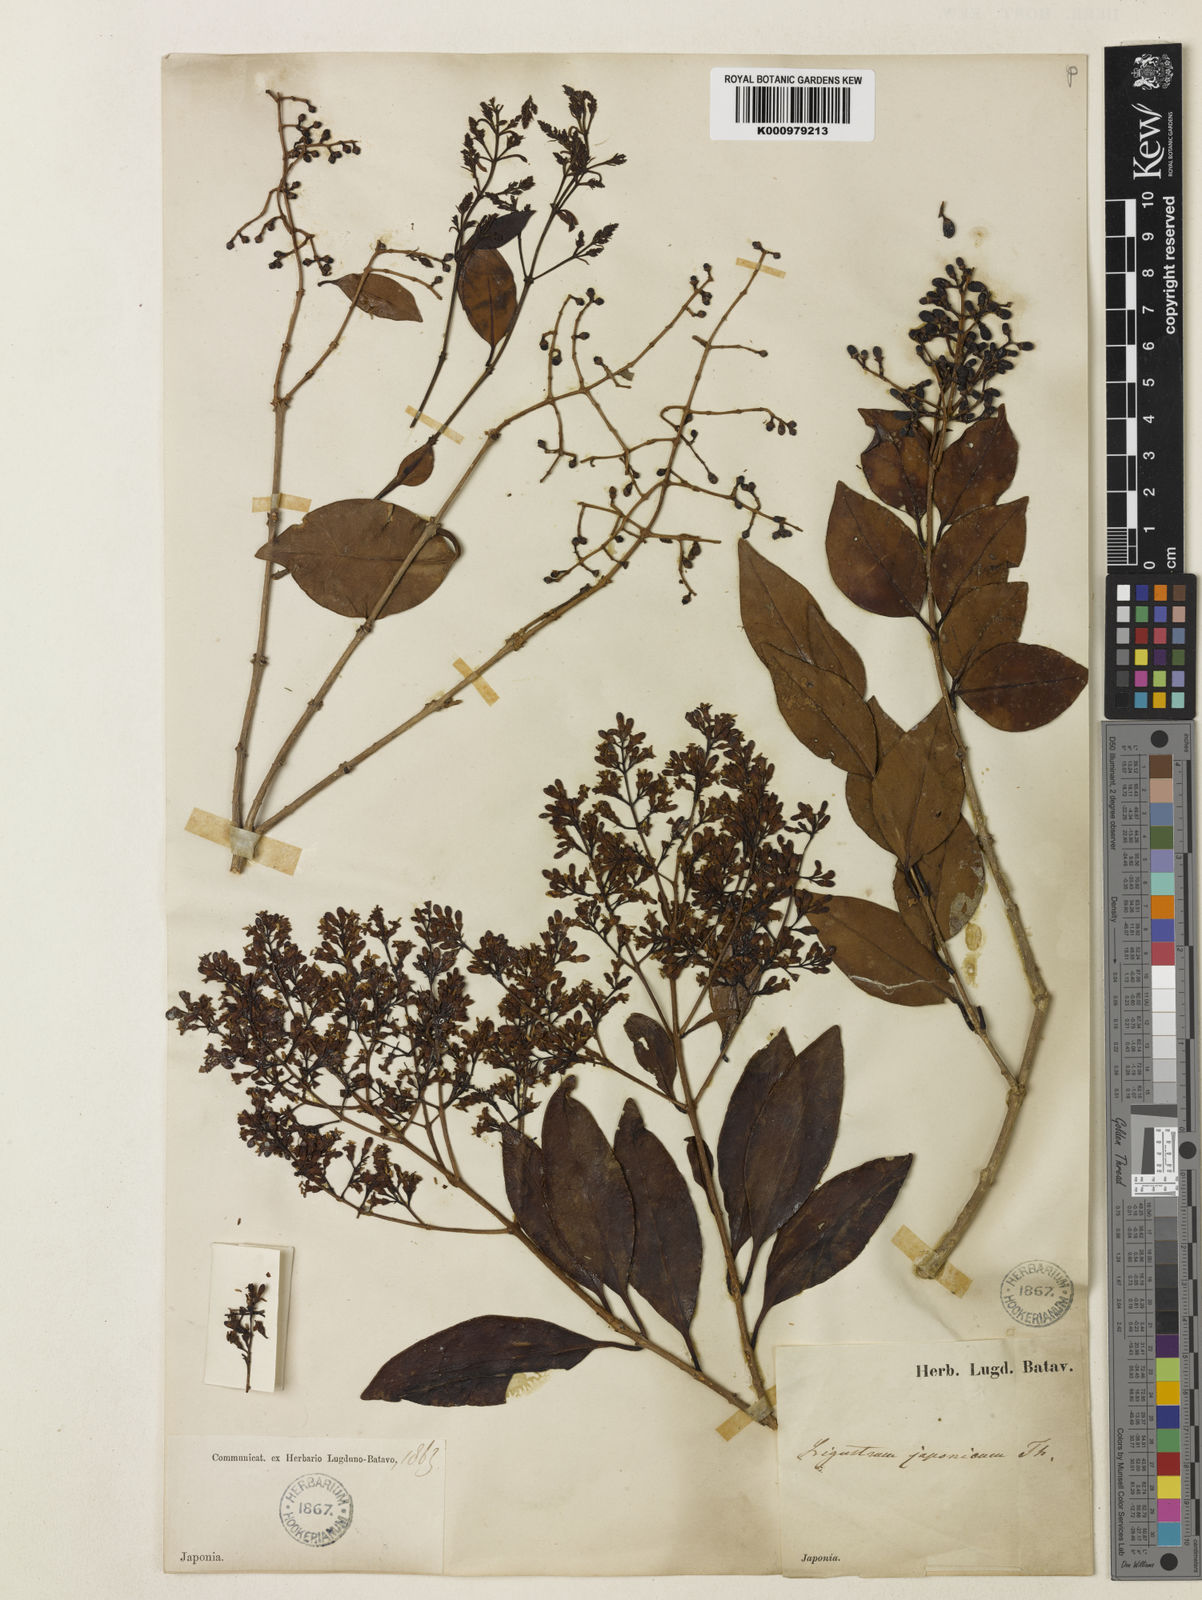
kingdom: Plantae
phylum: Tracheophyta
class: Magnoliopsida
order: Lamiales
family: Oleaceae
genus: Ligustrum
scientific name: Ligustrum
